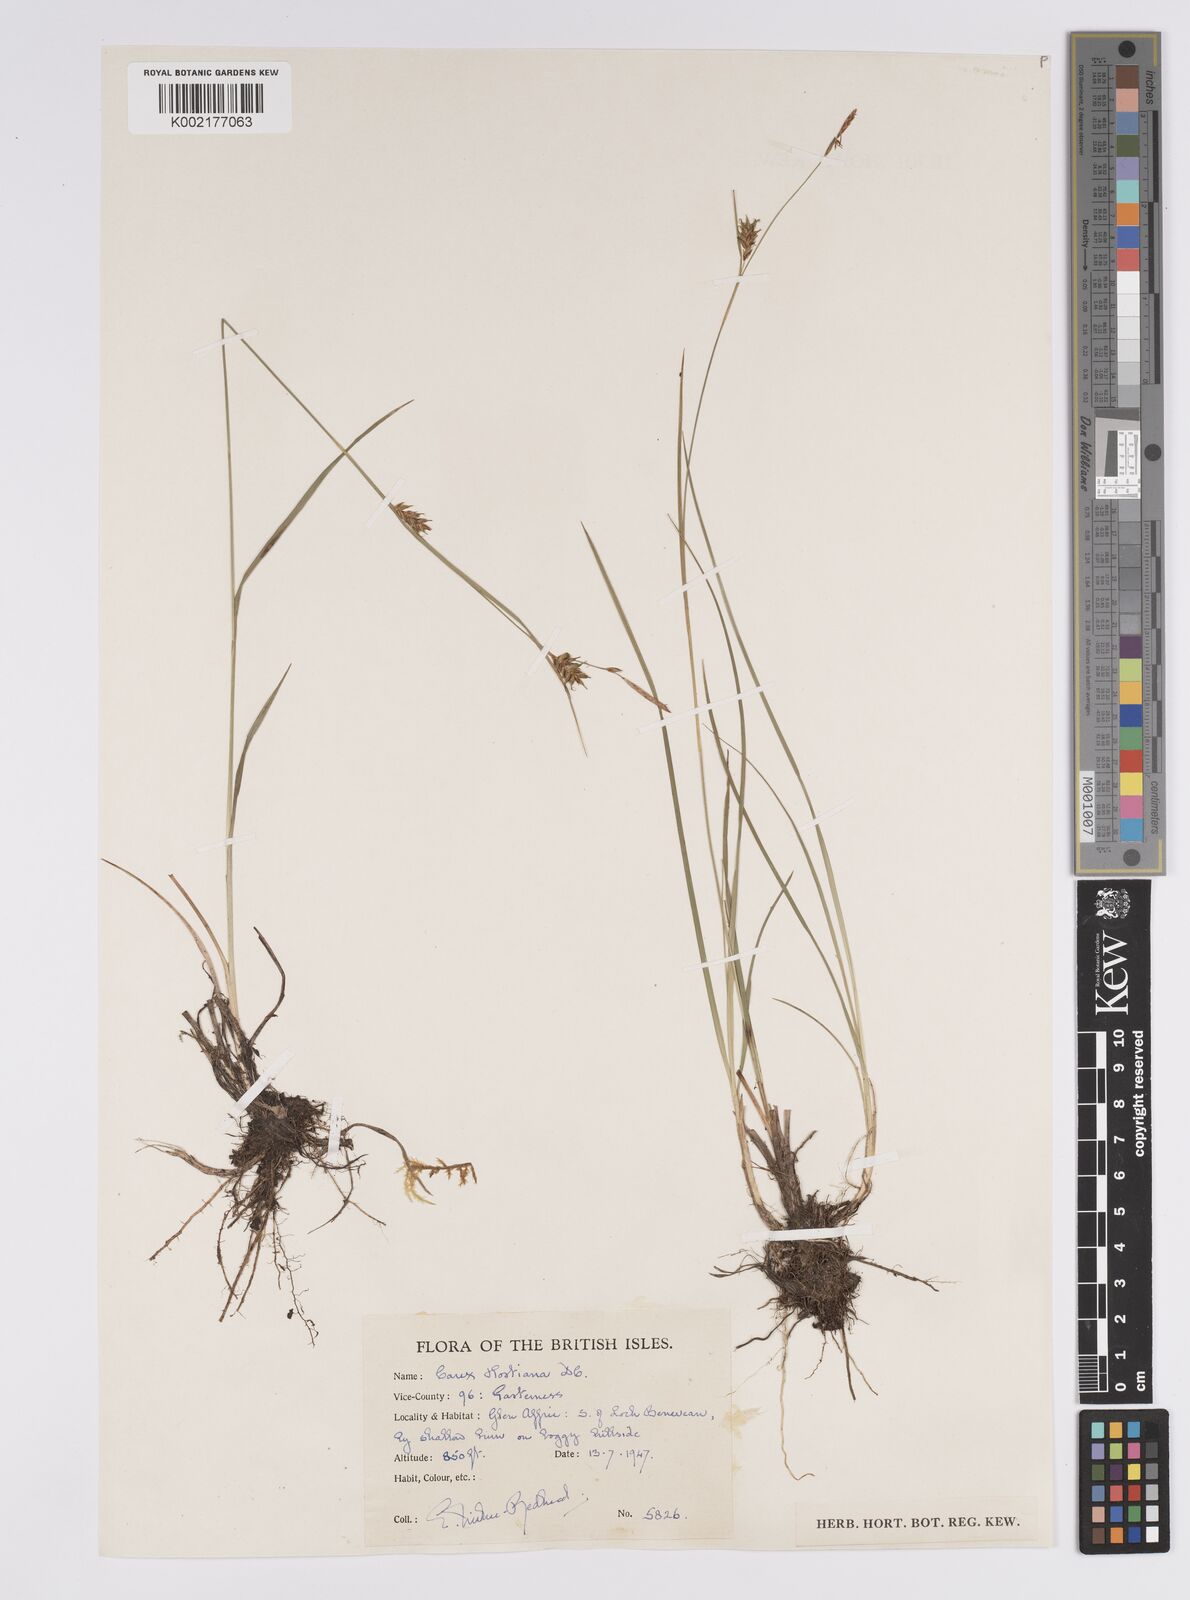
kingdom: Plantae
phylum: Tracheophyta
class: Liliopsida
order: Poales
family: Cyperaceae
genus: Carex
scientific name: Carex hostiana
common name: Tawny sedge
